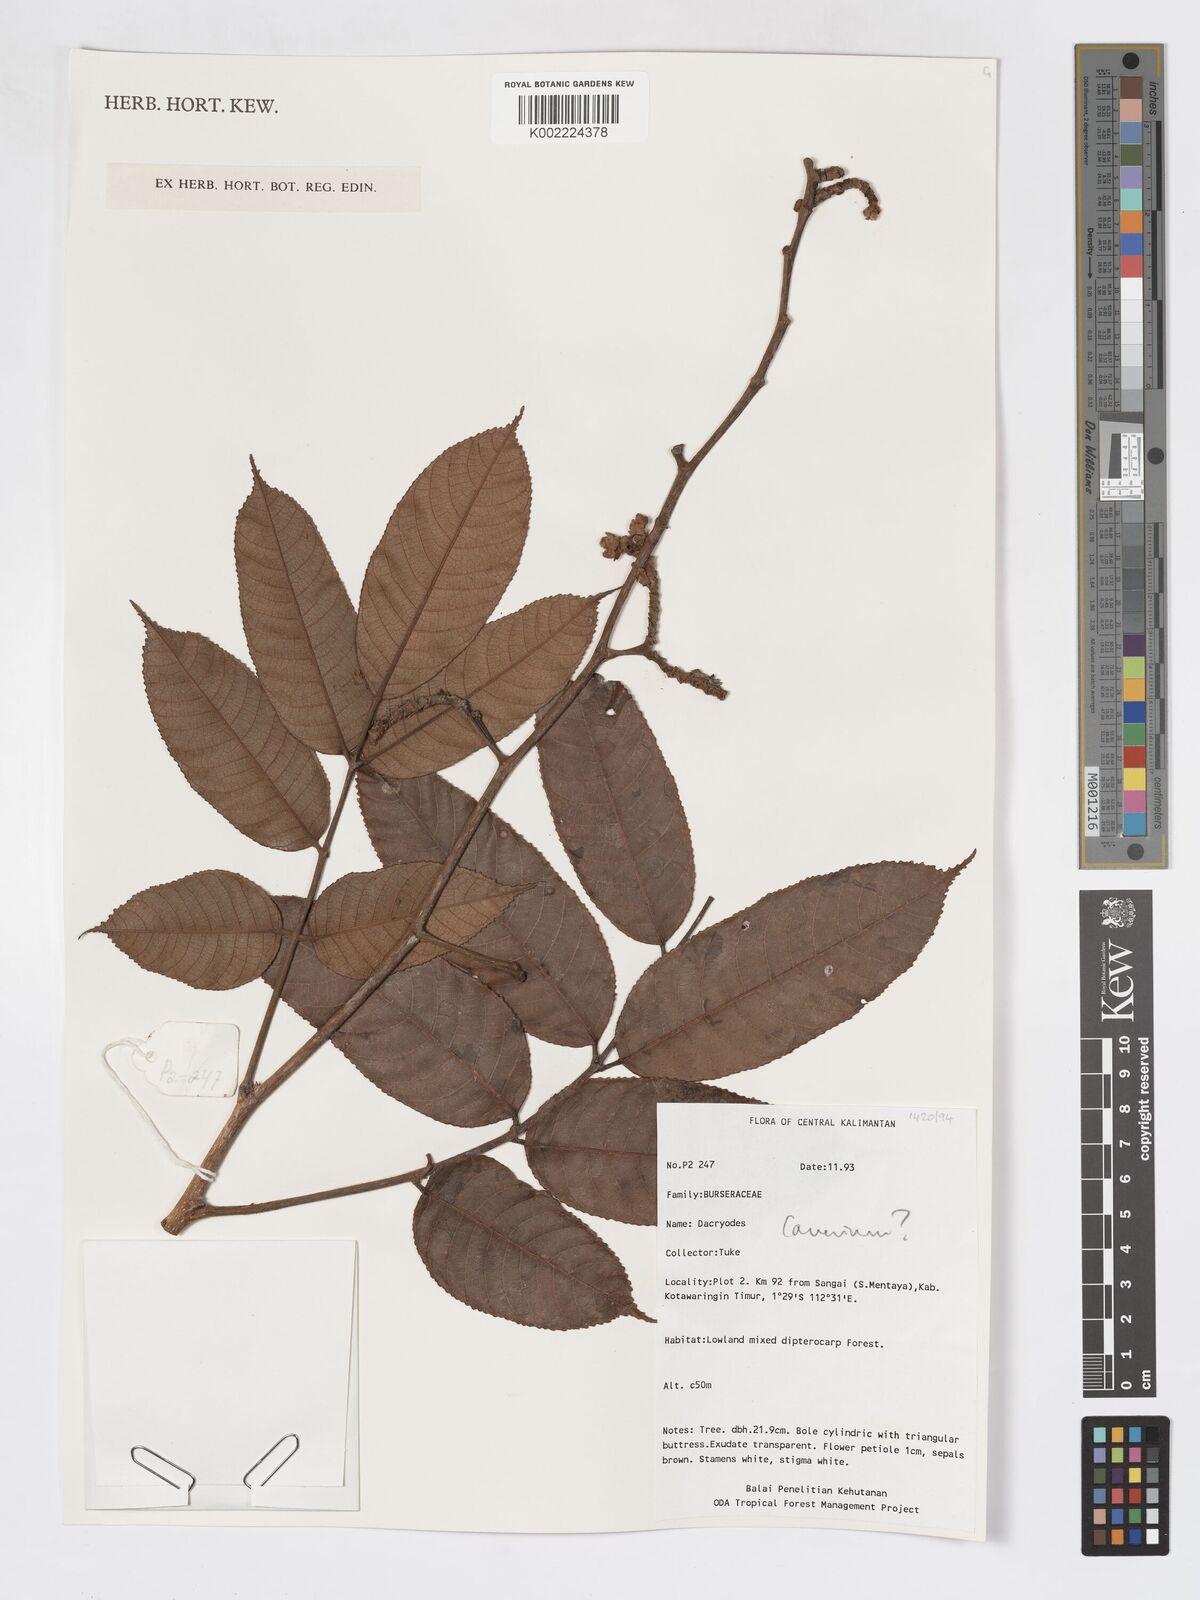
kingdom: Plantae
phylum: Tracheophyta
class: Magnoliopsida
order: Sapindales
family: Burseraceae
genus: Canarium
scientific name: Canarium
